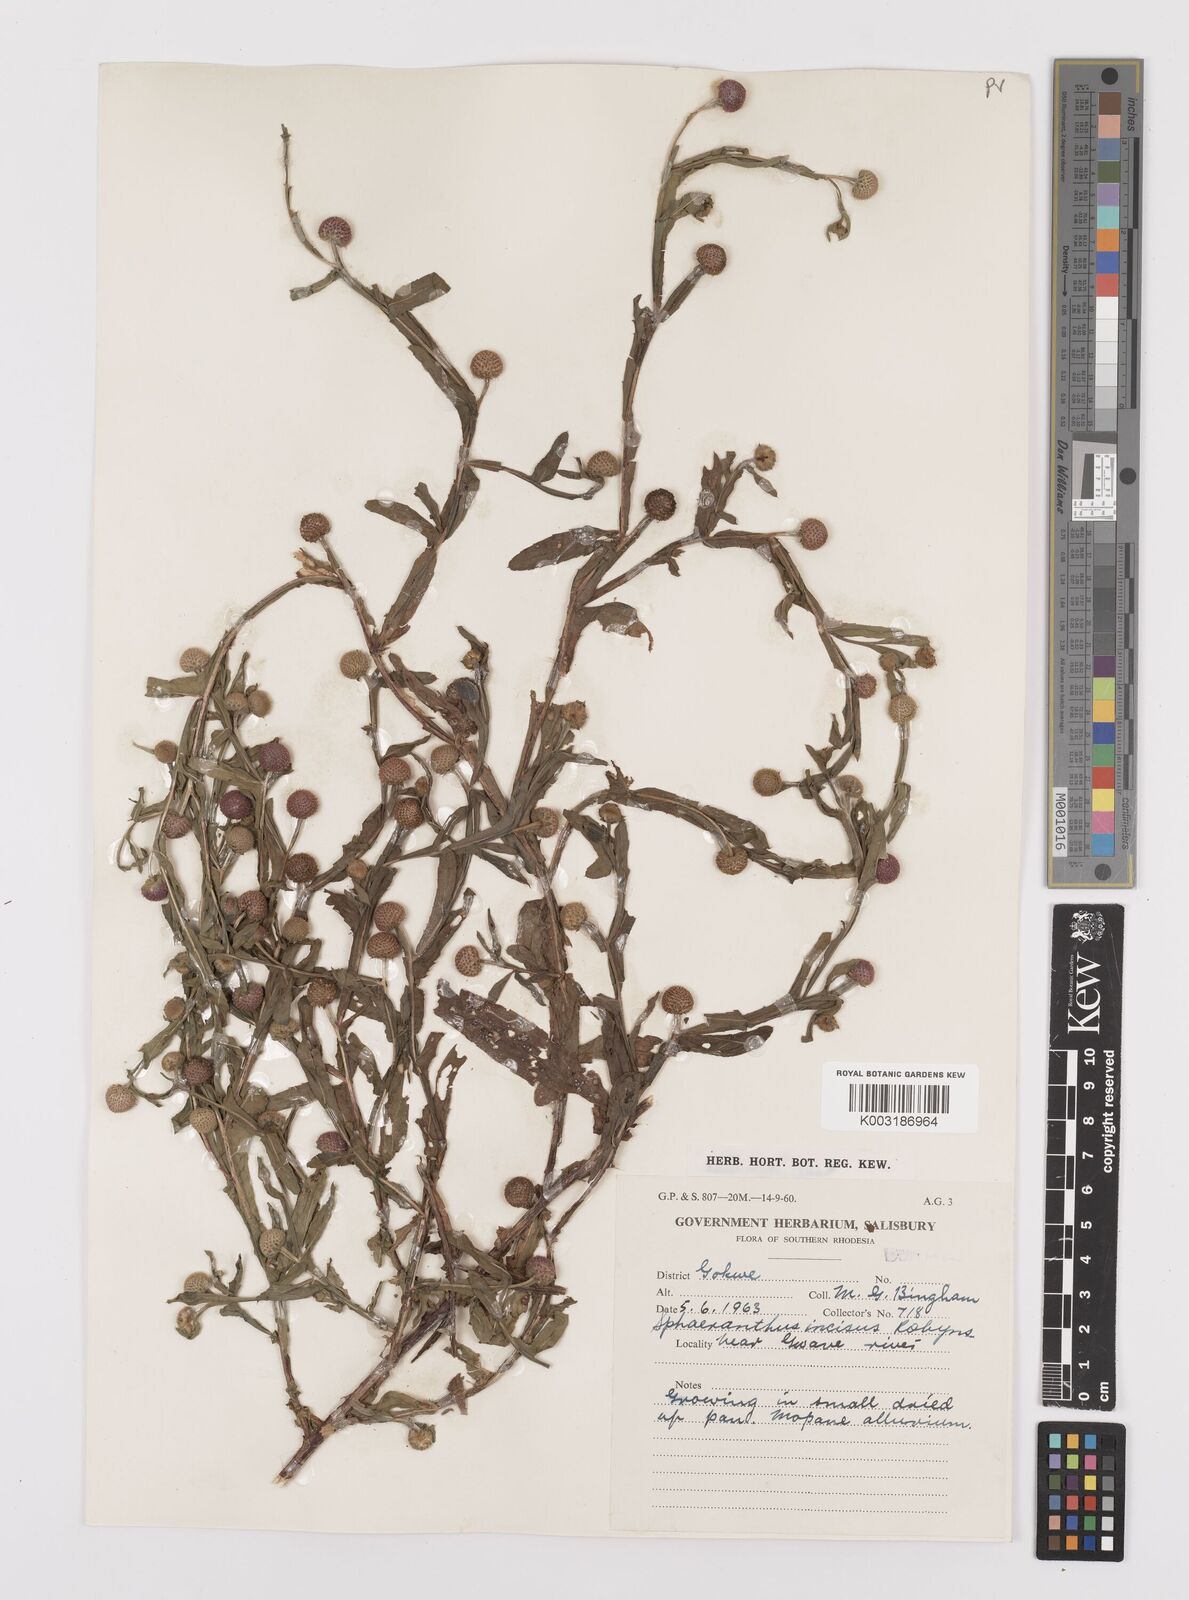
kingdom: Plantae
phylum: Tracheophyta
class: Magnoliopsida
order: Asterales
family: Asteraceae
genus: Sphaeranthus
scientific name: Sphaeranthus peduncularis
